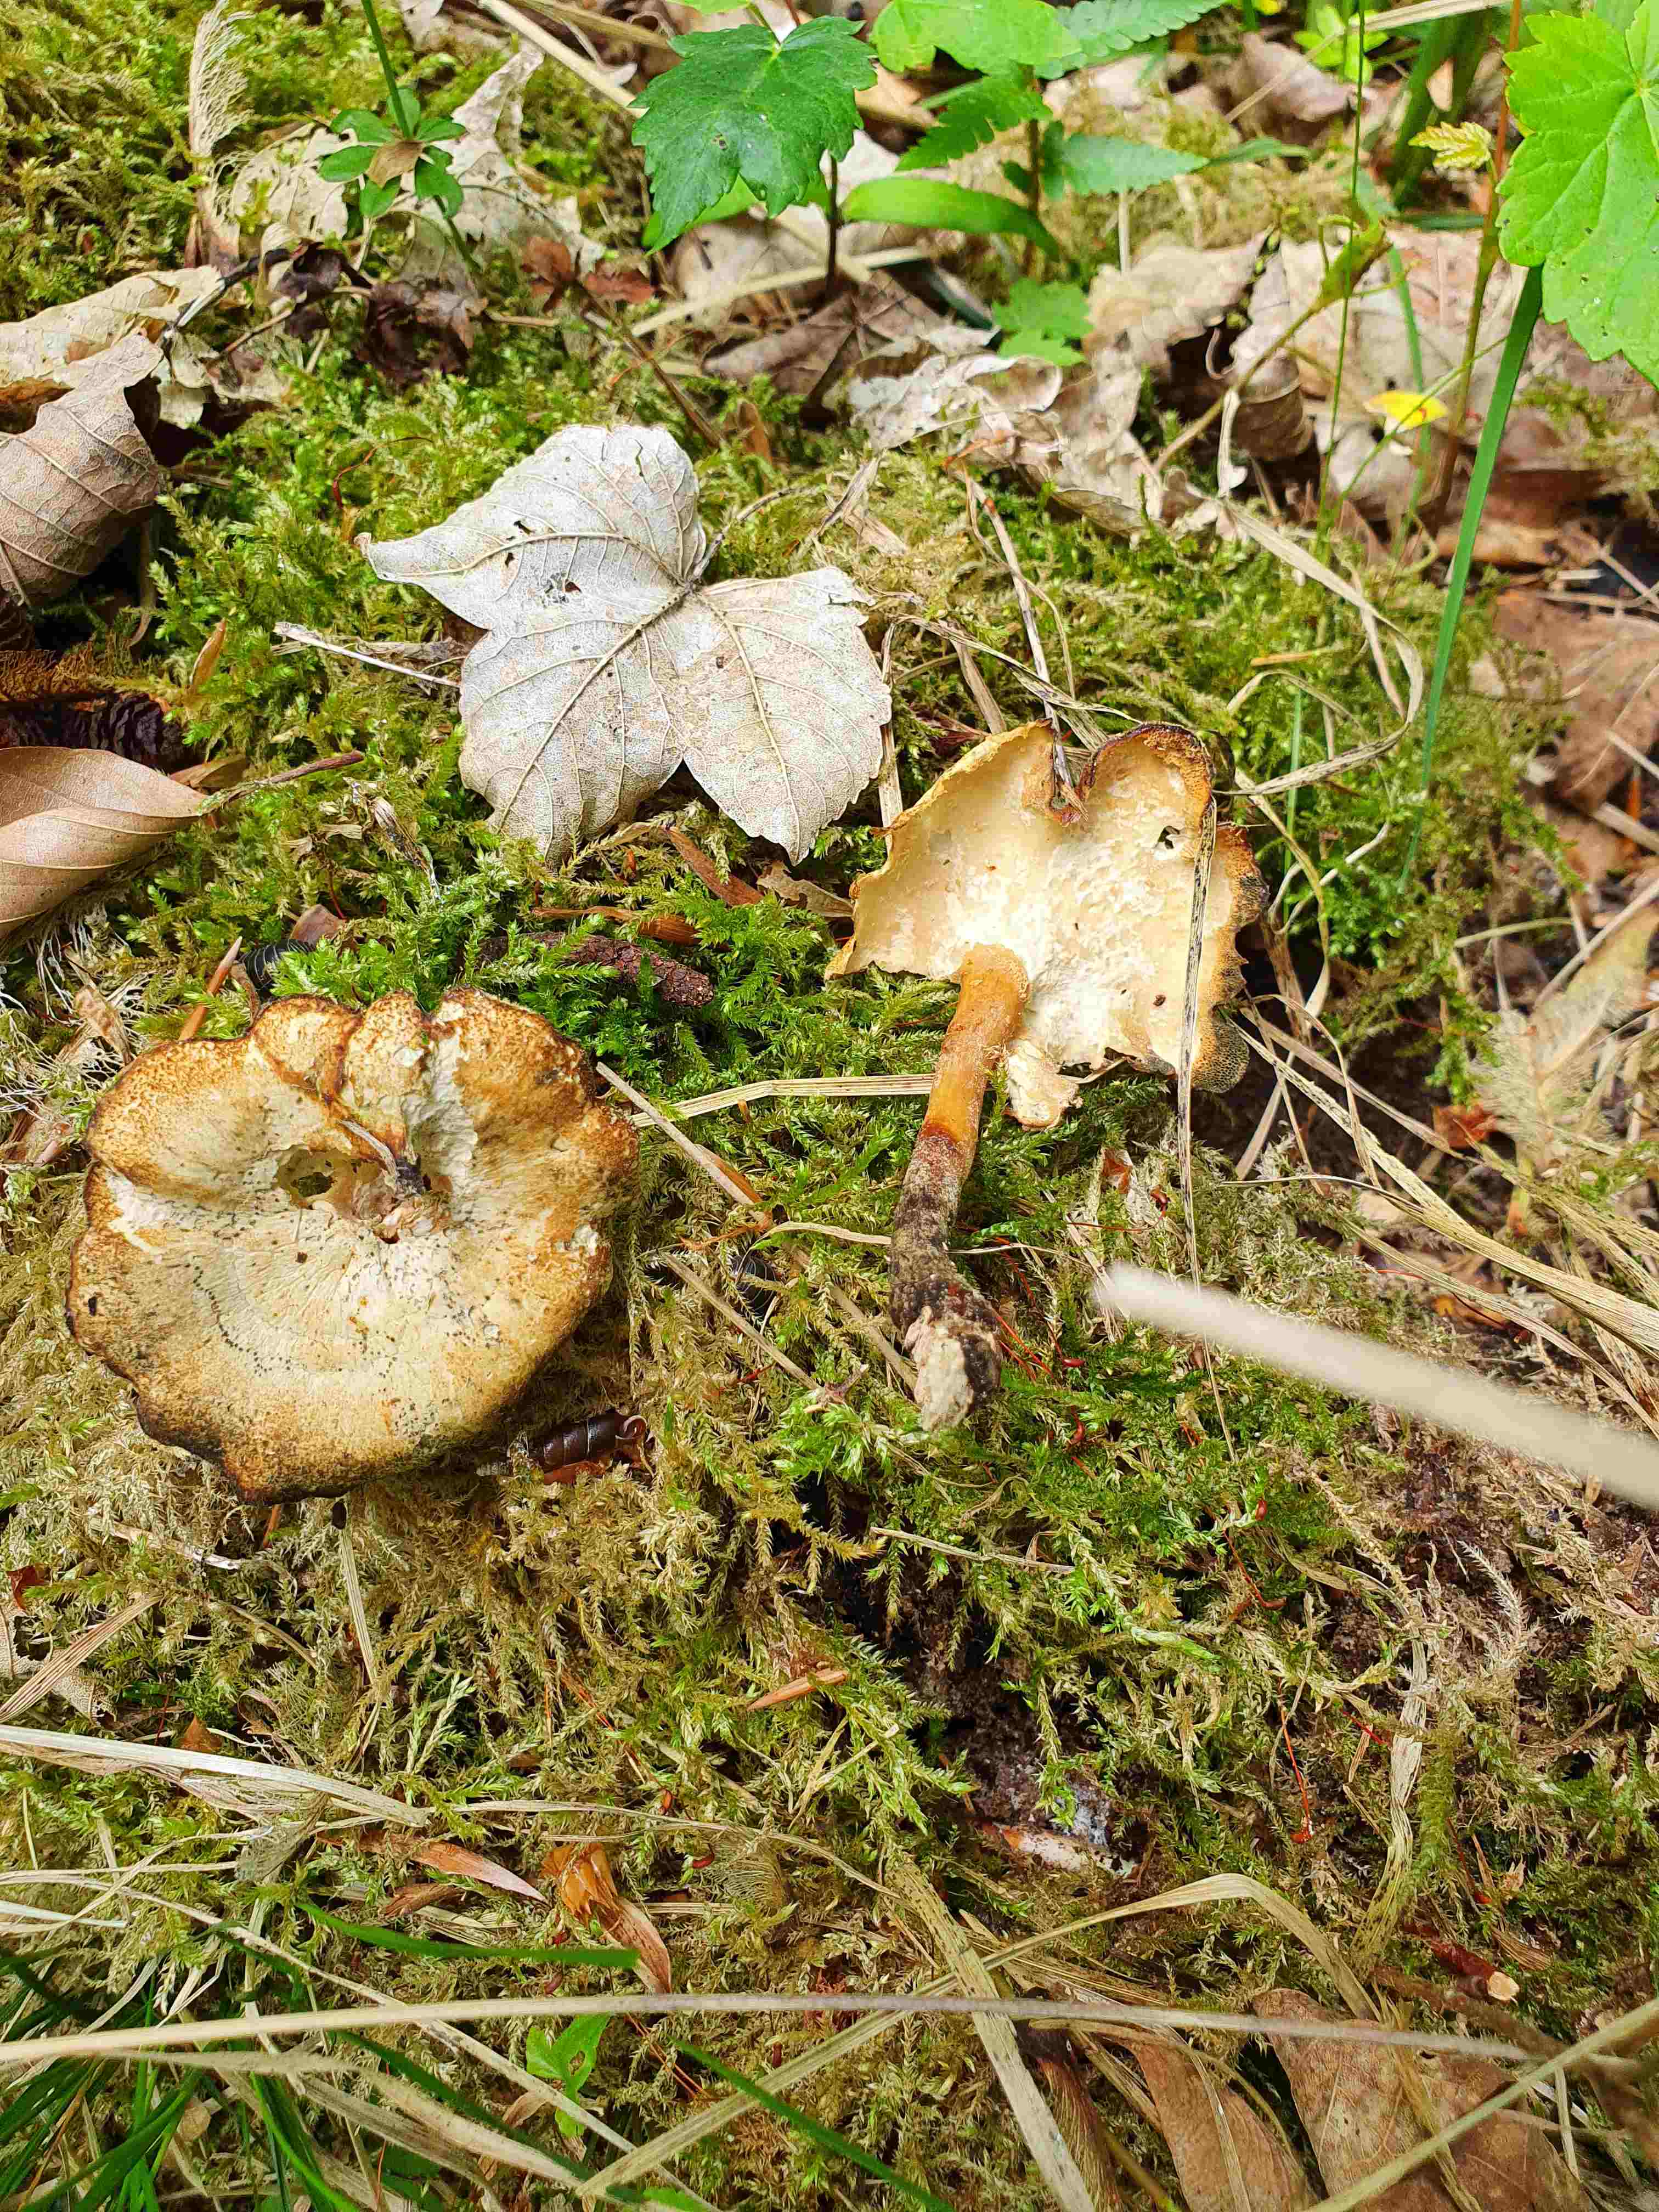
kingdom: Fungi
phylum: Basidiomycota
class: Agaricomycetes
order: Polyporales
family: Polyporaceae
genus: Lentinus
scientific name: Lentinus brumalis
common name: vinter-stilkporesvamp
